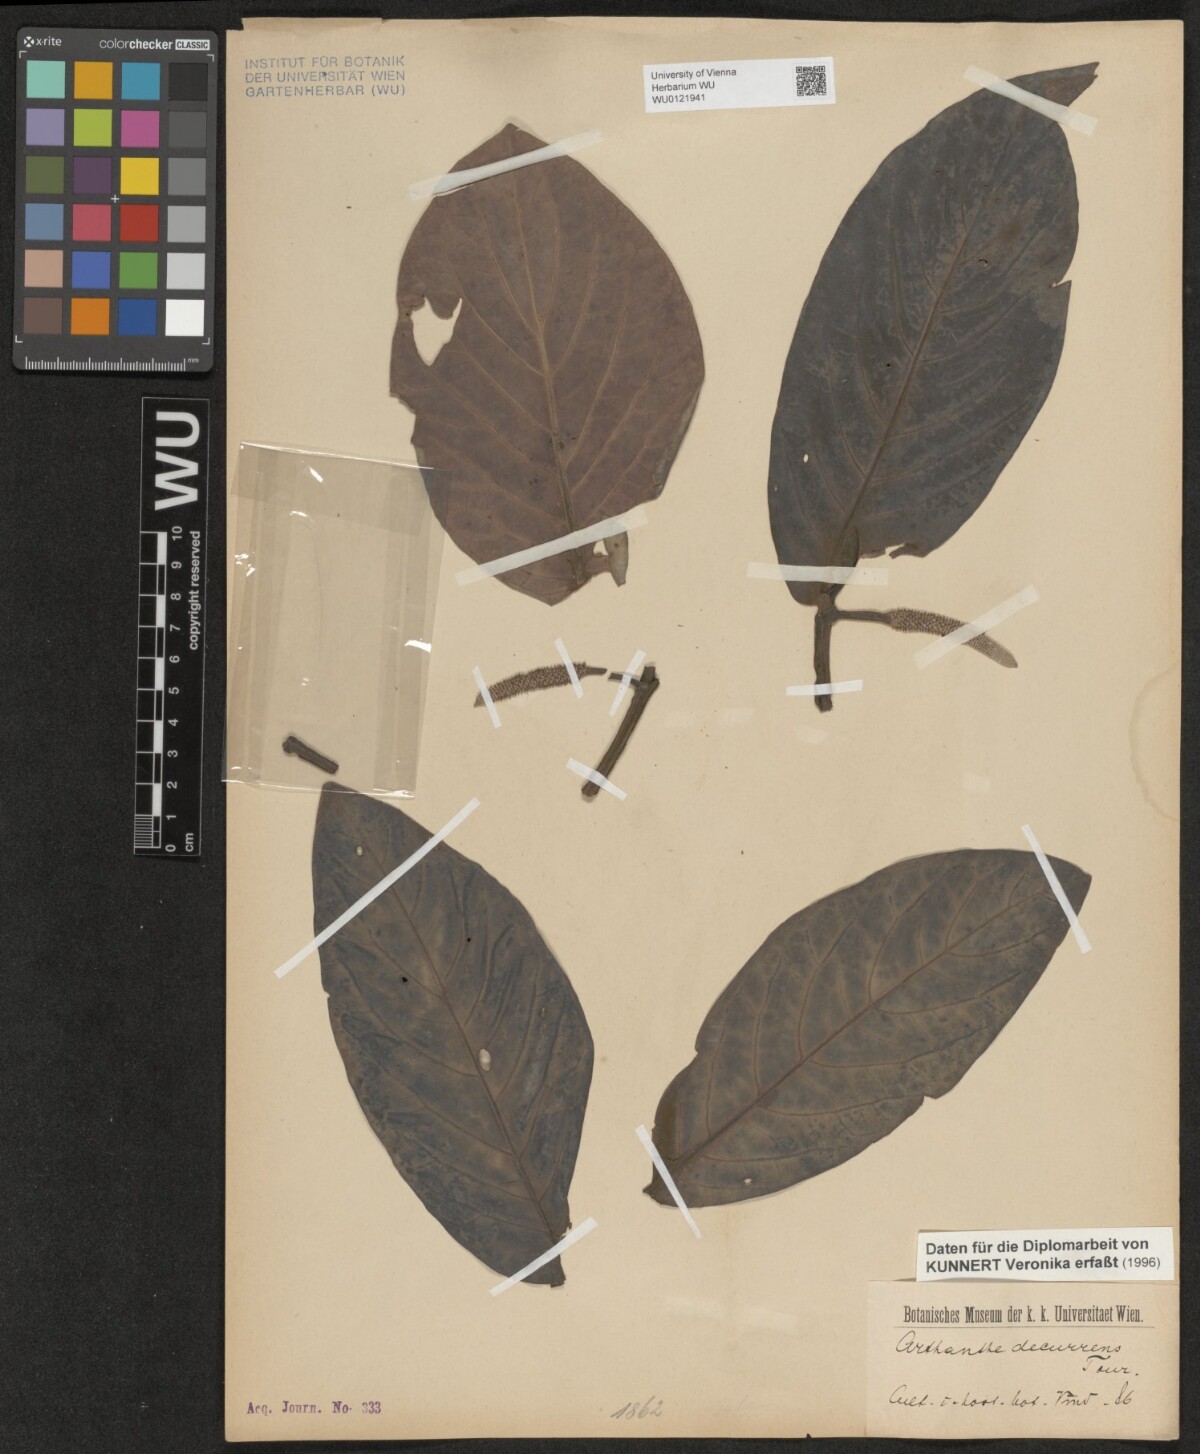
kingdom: Plantae
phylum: Tracheophyta
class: Magnoliopsida
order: Piperales
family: Piperaceae
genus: Piper
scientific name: Piper decurrens
